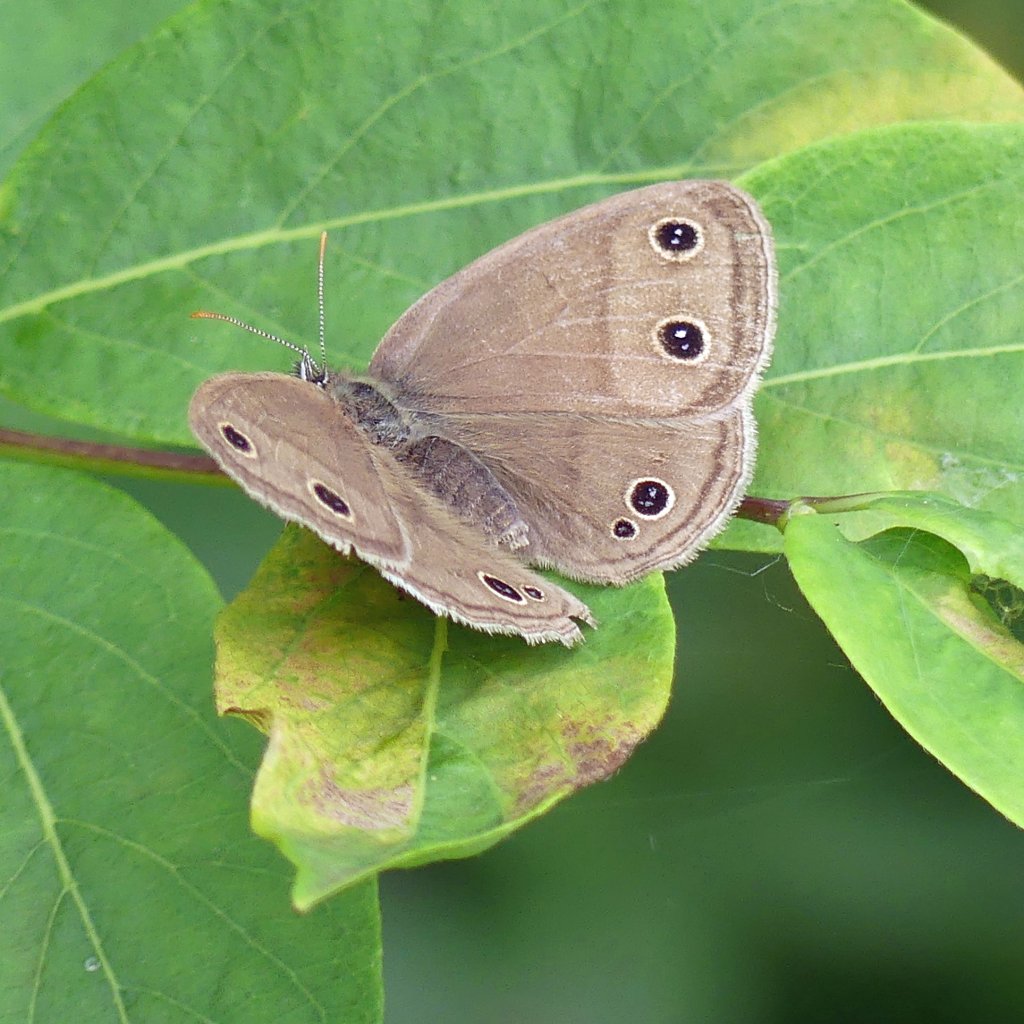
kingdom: Animalia
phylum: Arthropoda
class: Insecta
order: Lepidoptera
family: Nymphalidae
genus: Euptychia
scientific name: Euptychia cymela
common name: Little Wood Satyr
